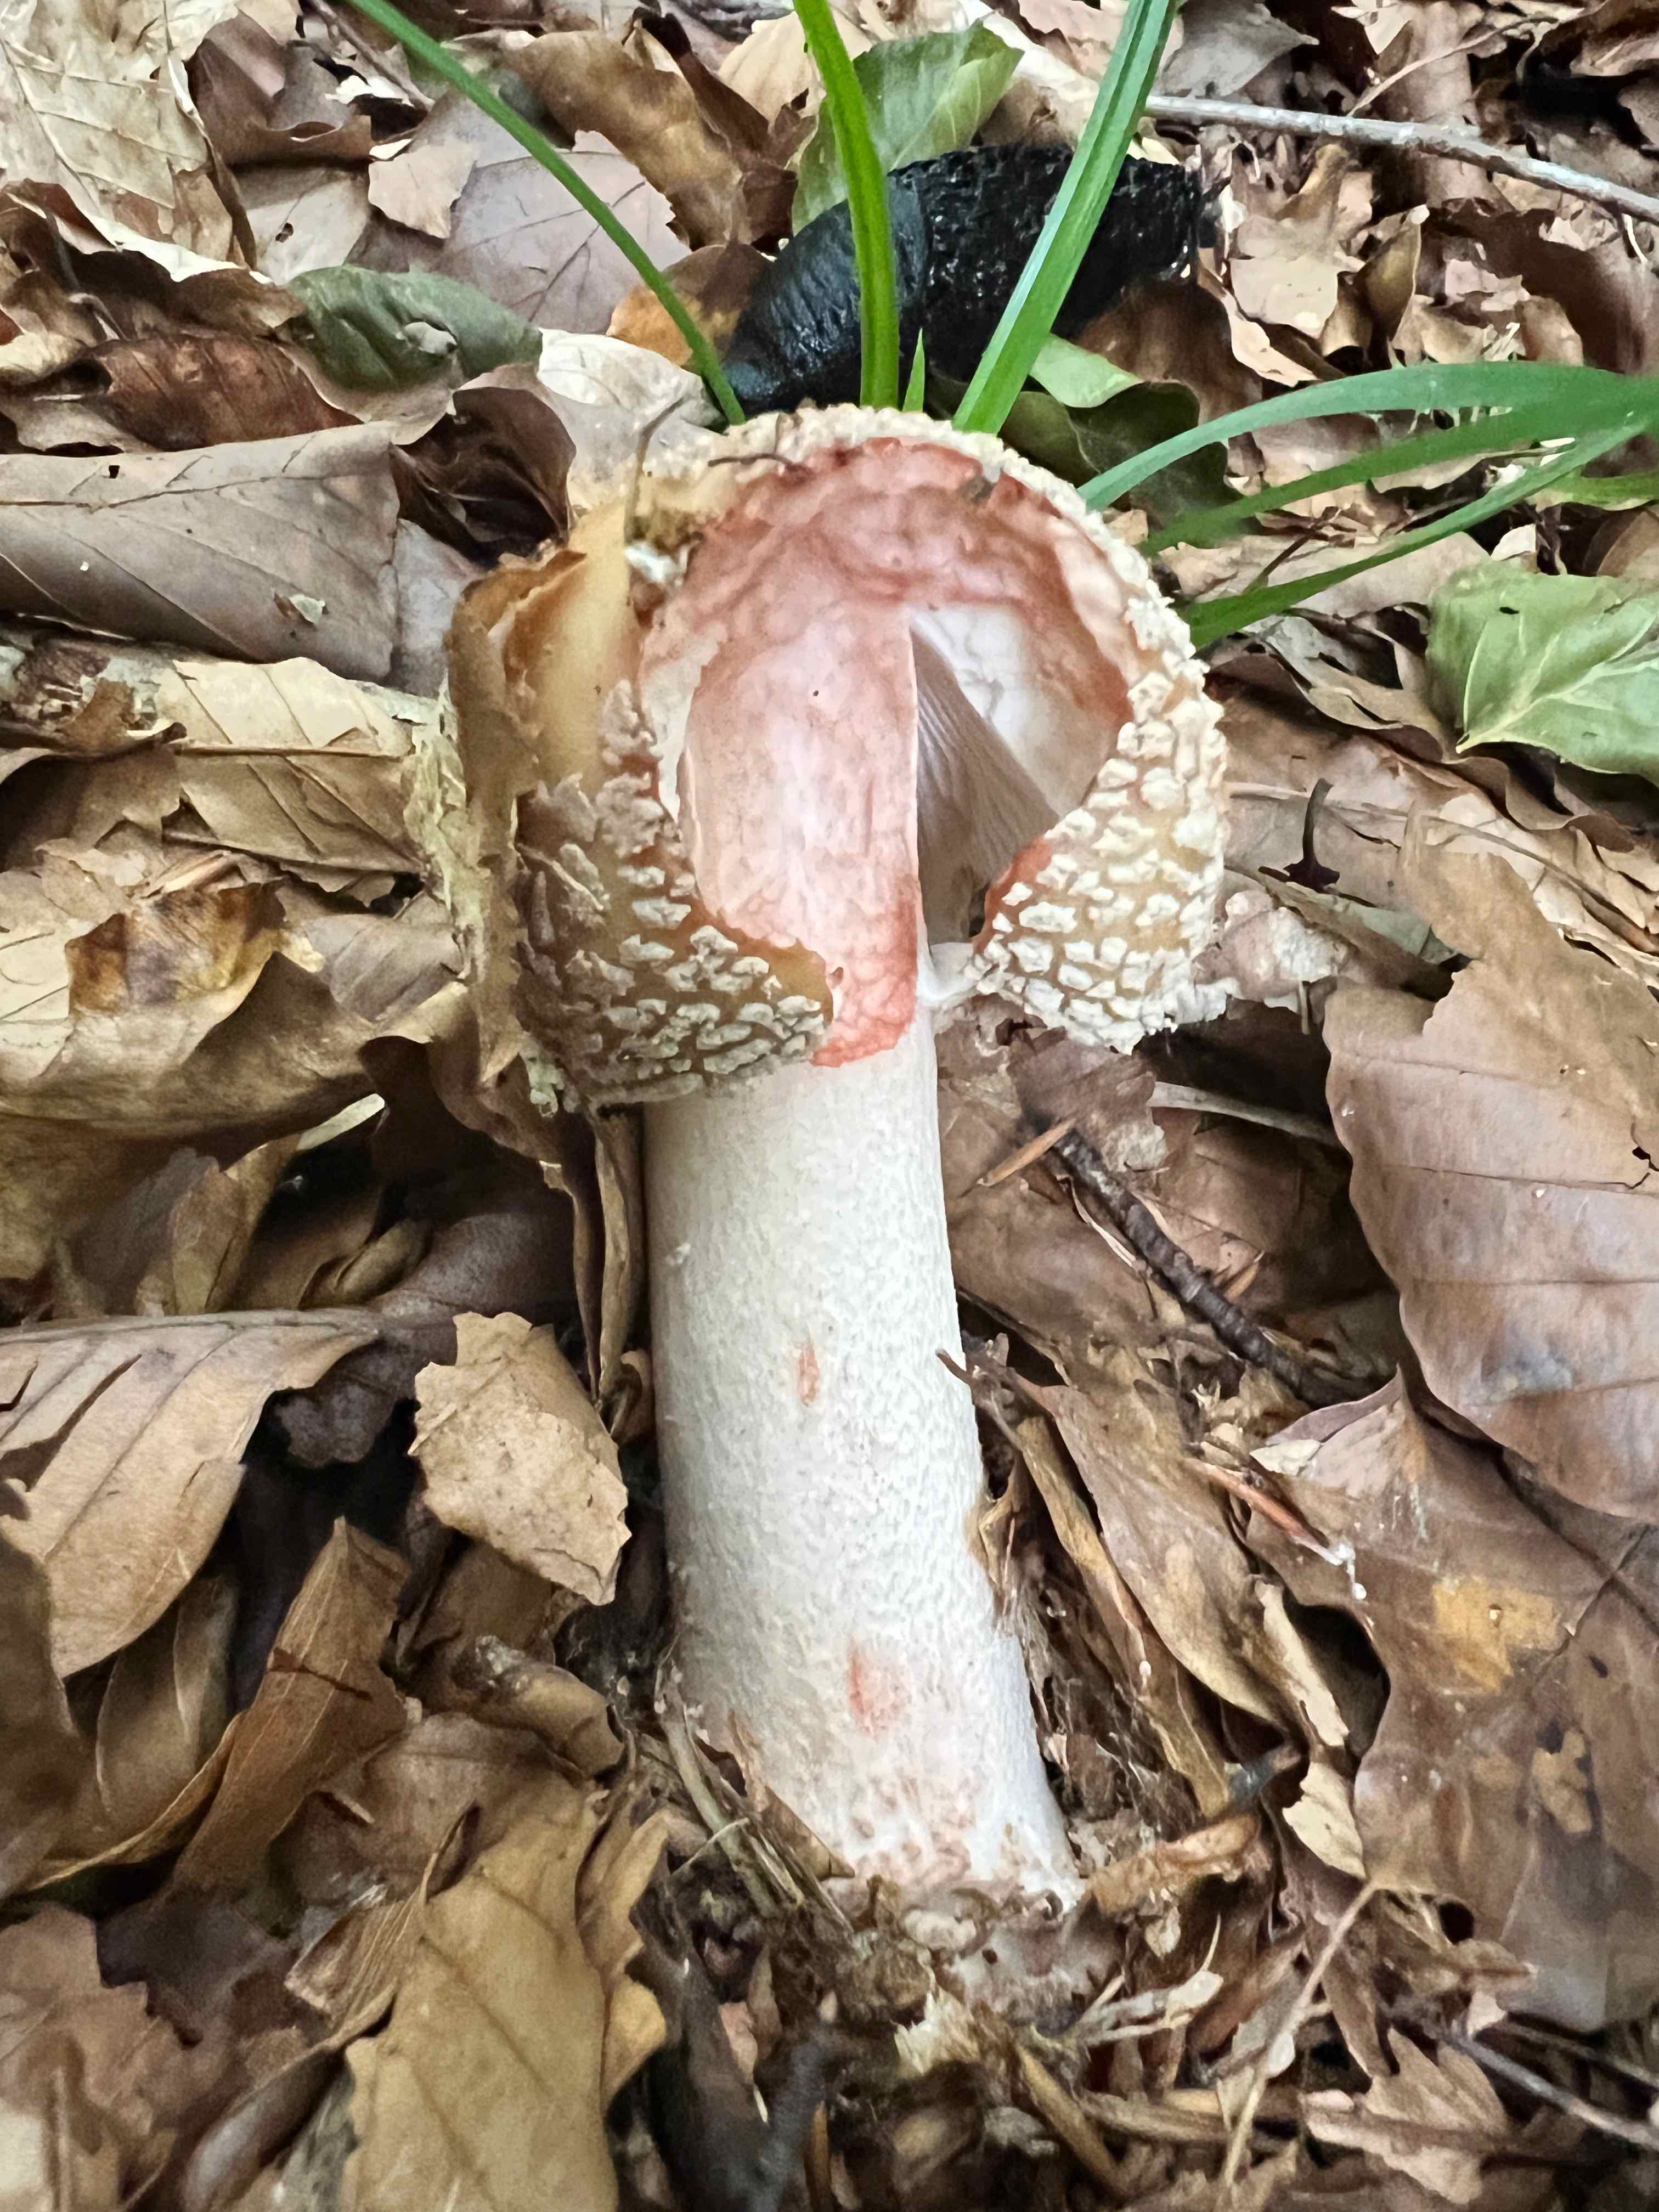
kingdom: Fungi
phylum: Basidiomycota
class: Agaricomycetes
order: Agaricales
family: Amanitaceae
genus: Amanita
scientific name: Amanita rubescens
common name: rødmende fluesvamp
